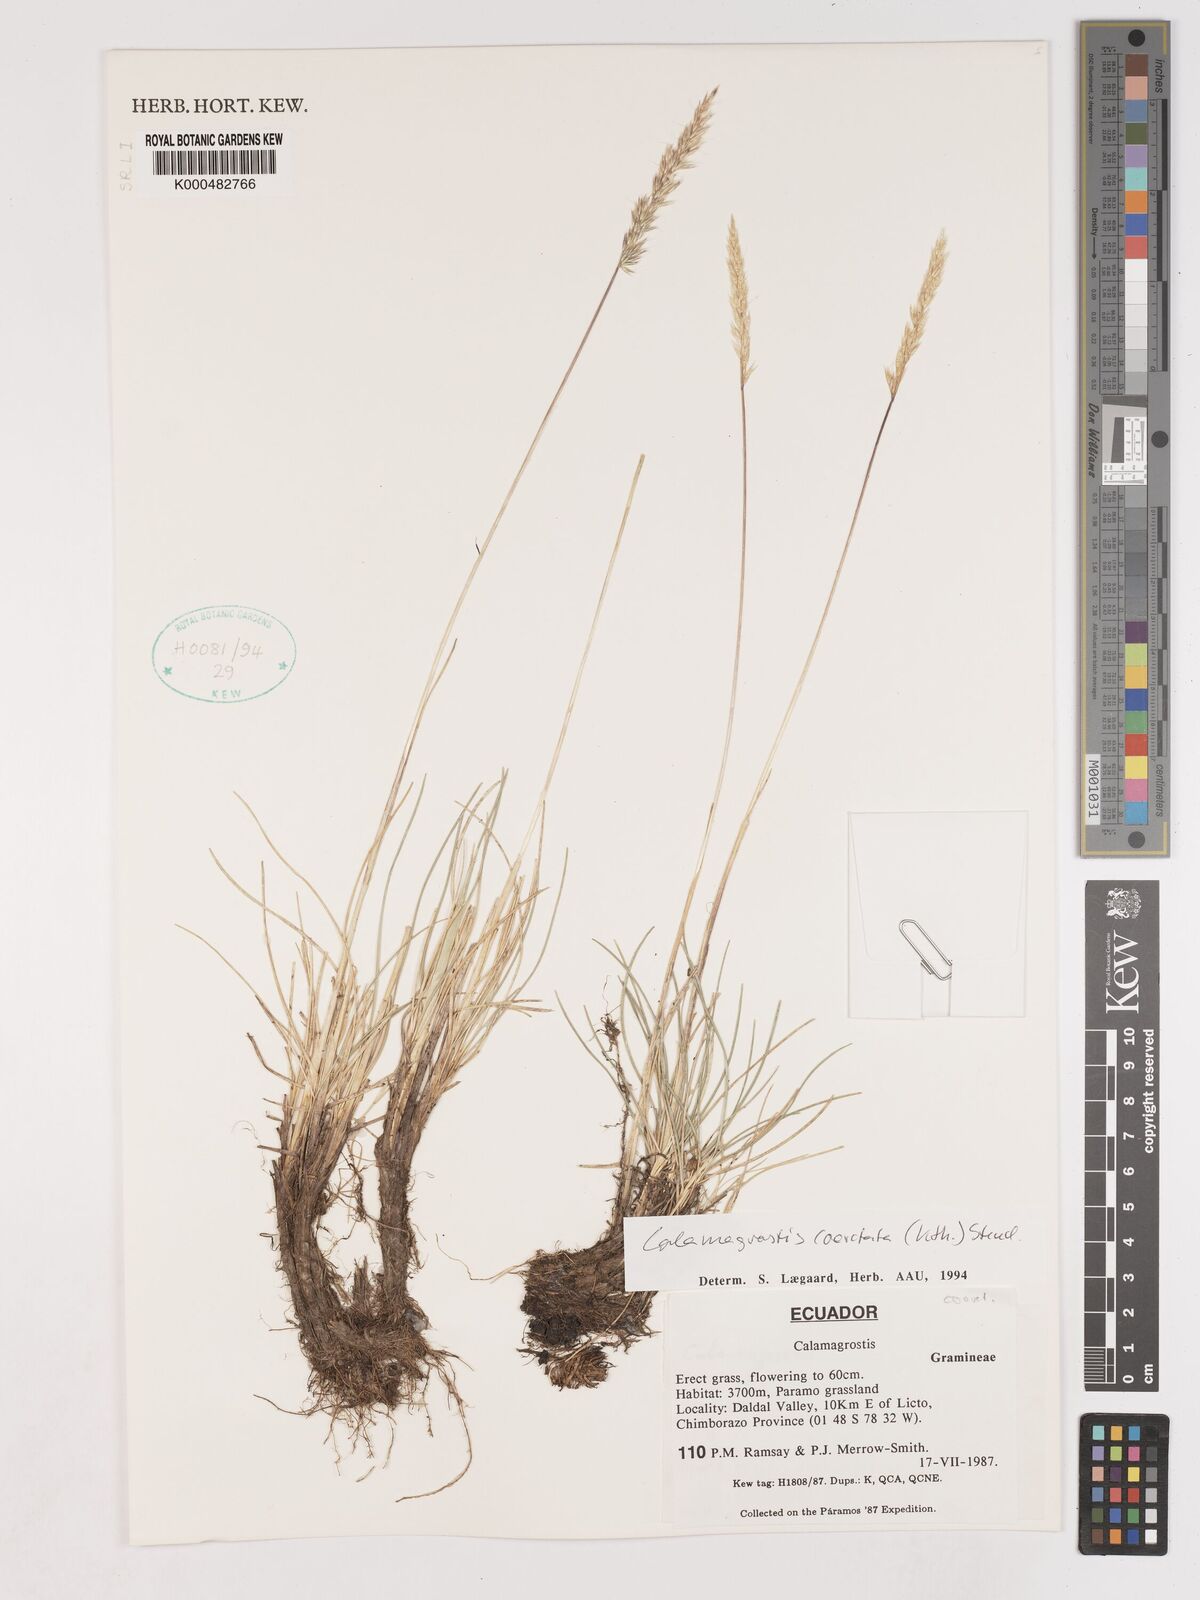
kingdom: Plantae
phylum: Tracheophyta
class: Liliopsida
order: Poales
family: Poaceae
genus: Cinnagrostis
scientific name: Cinnagrostis coarctata
